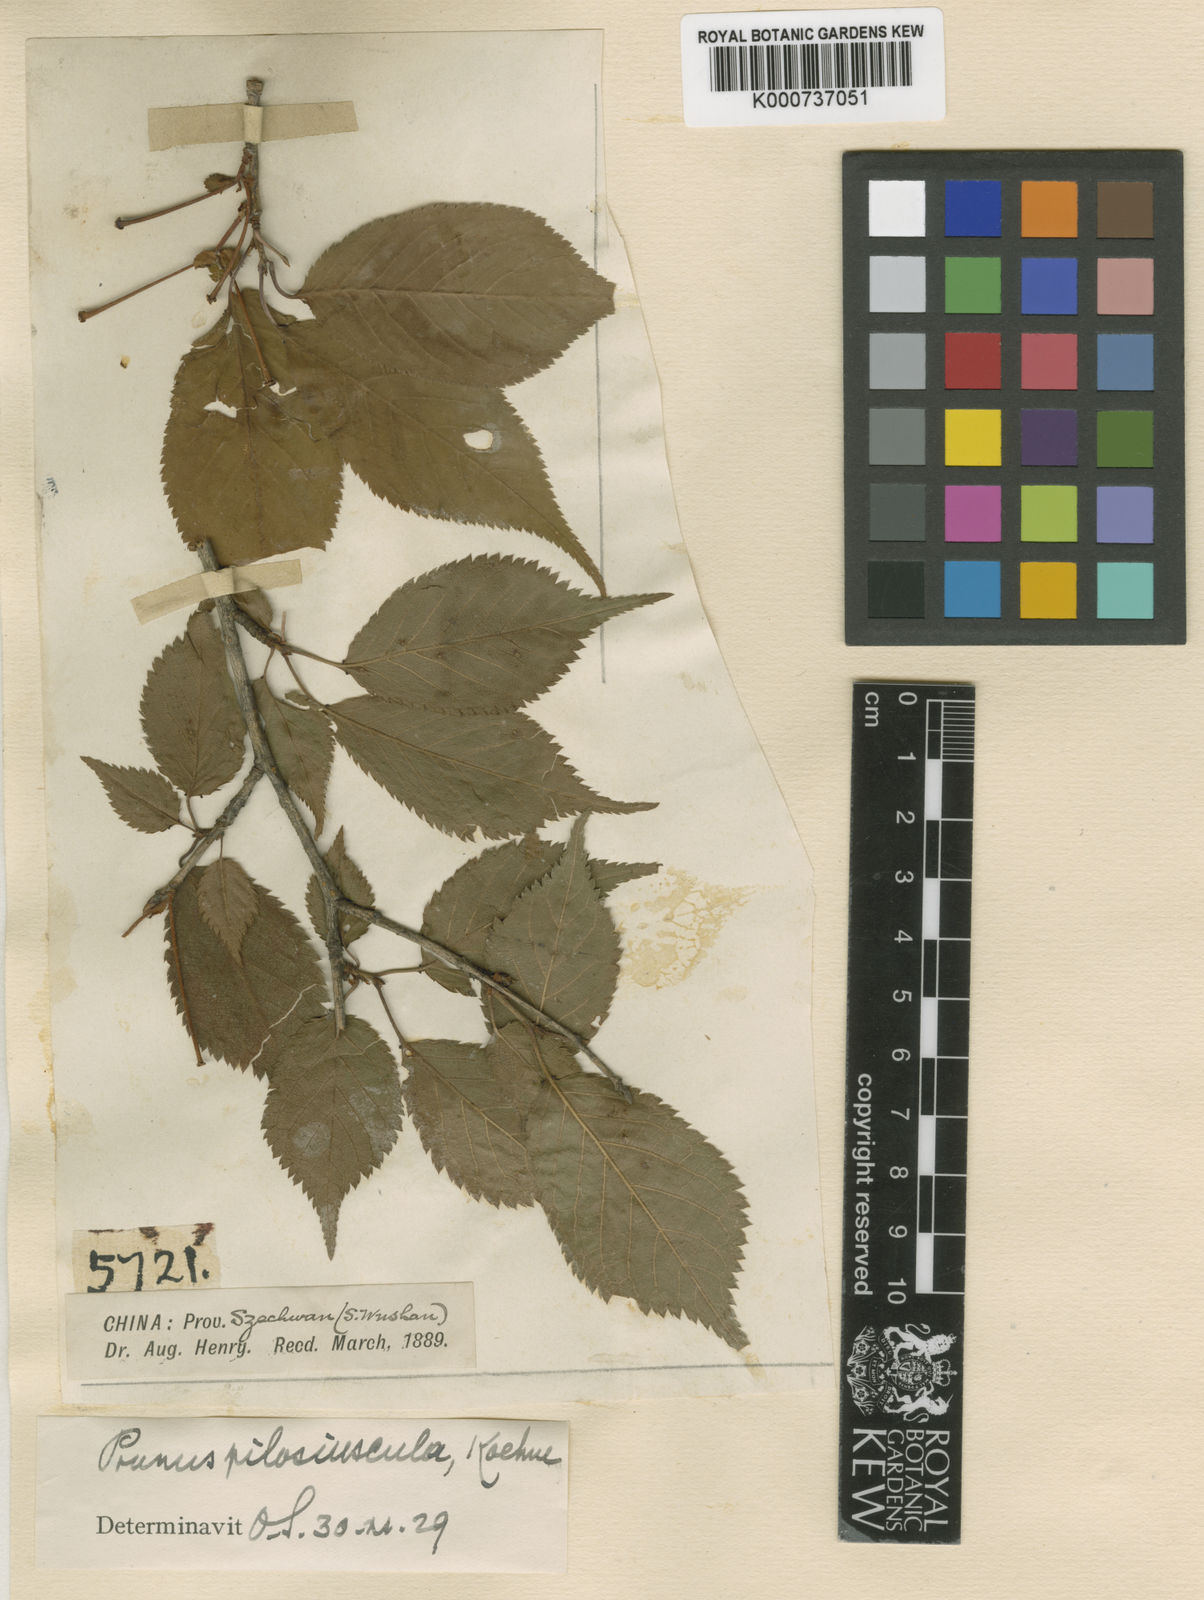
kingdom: Plantae
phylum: Tracheophyta
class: Magnoliopsida
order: Rosales
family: Rosaceae
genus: Prunus
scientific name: Prunus
